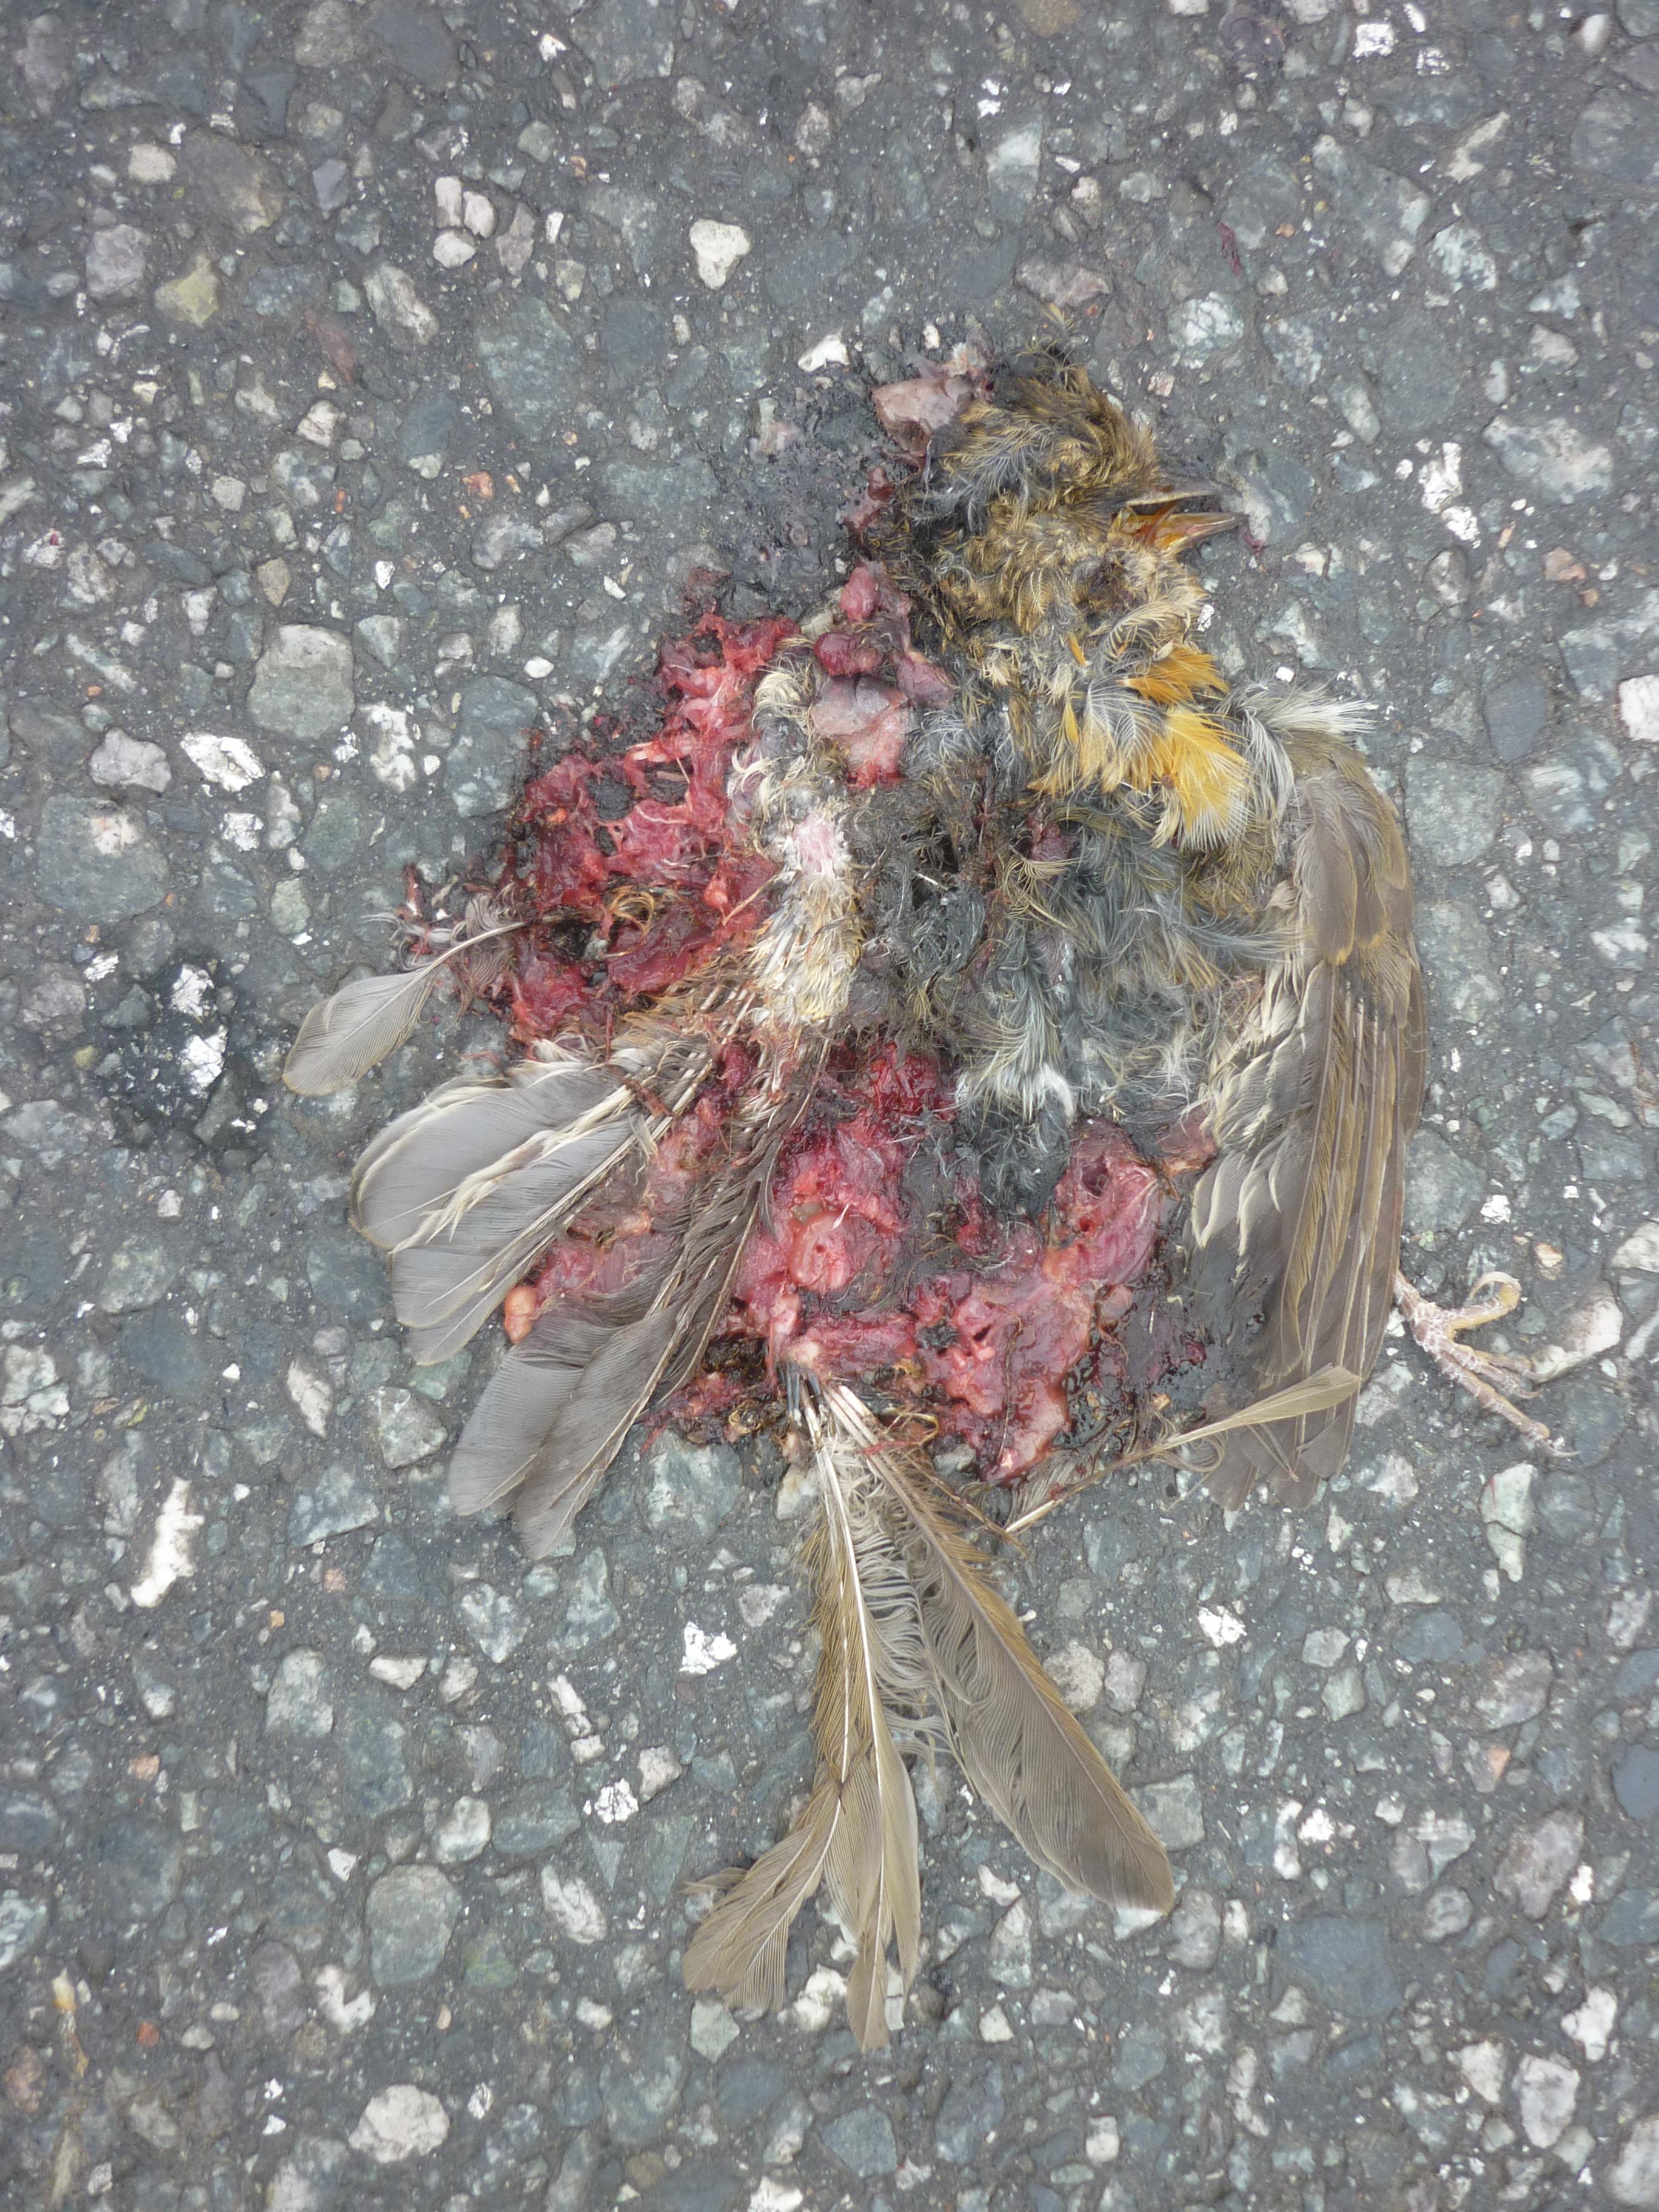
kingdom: Animalia
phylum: Chordata
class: Aves
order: Passeriformes
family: Muscicapidae
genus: Erithacus
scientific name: Erithacus rubecula
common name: European robin
